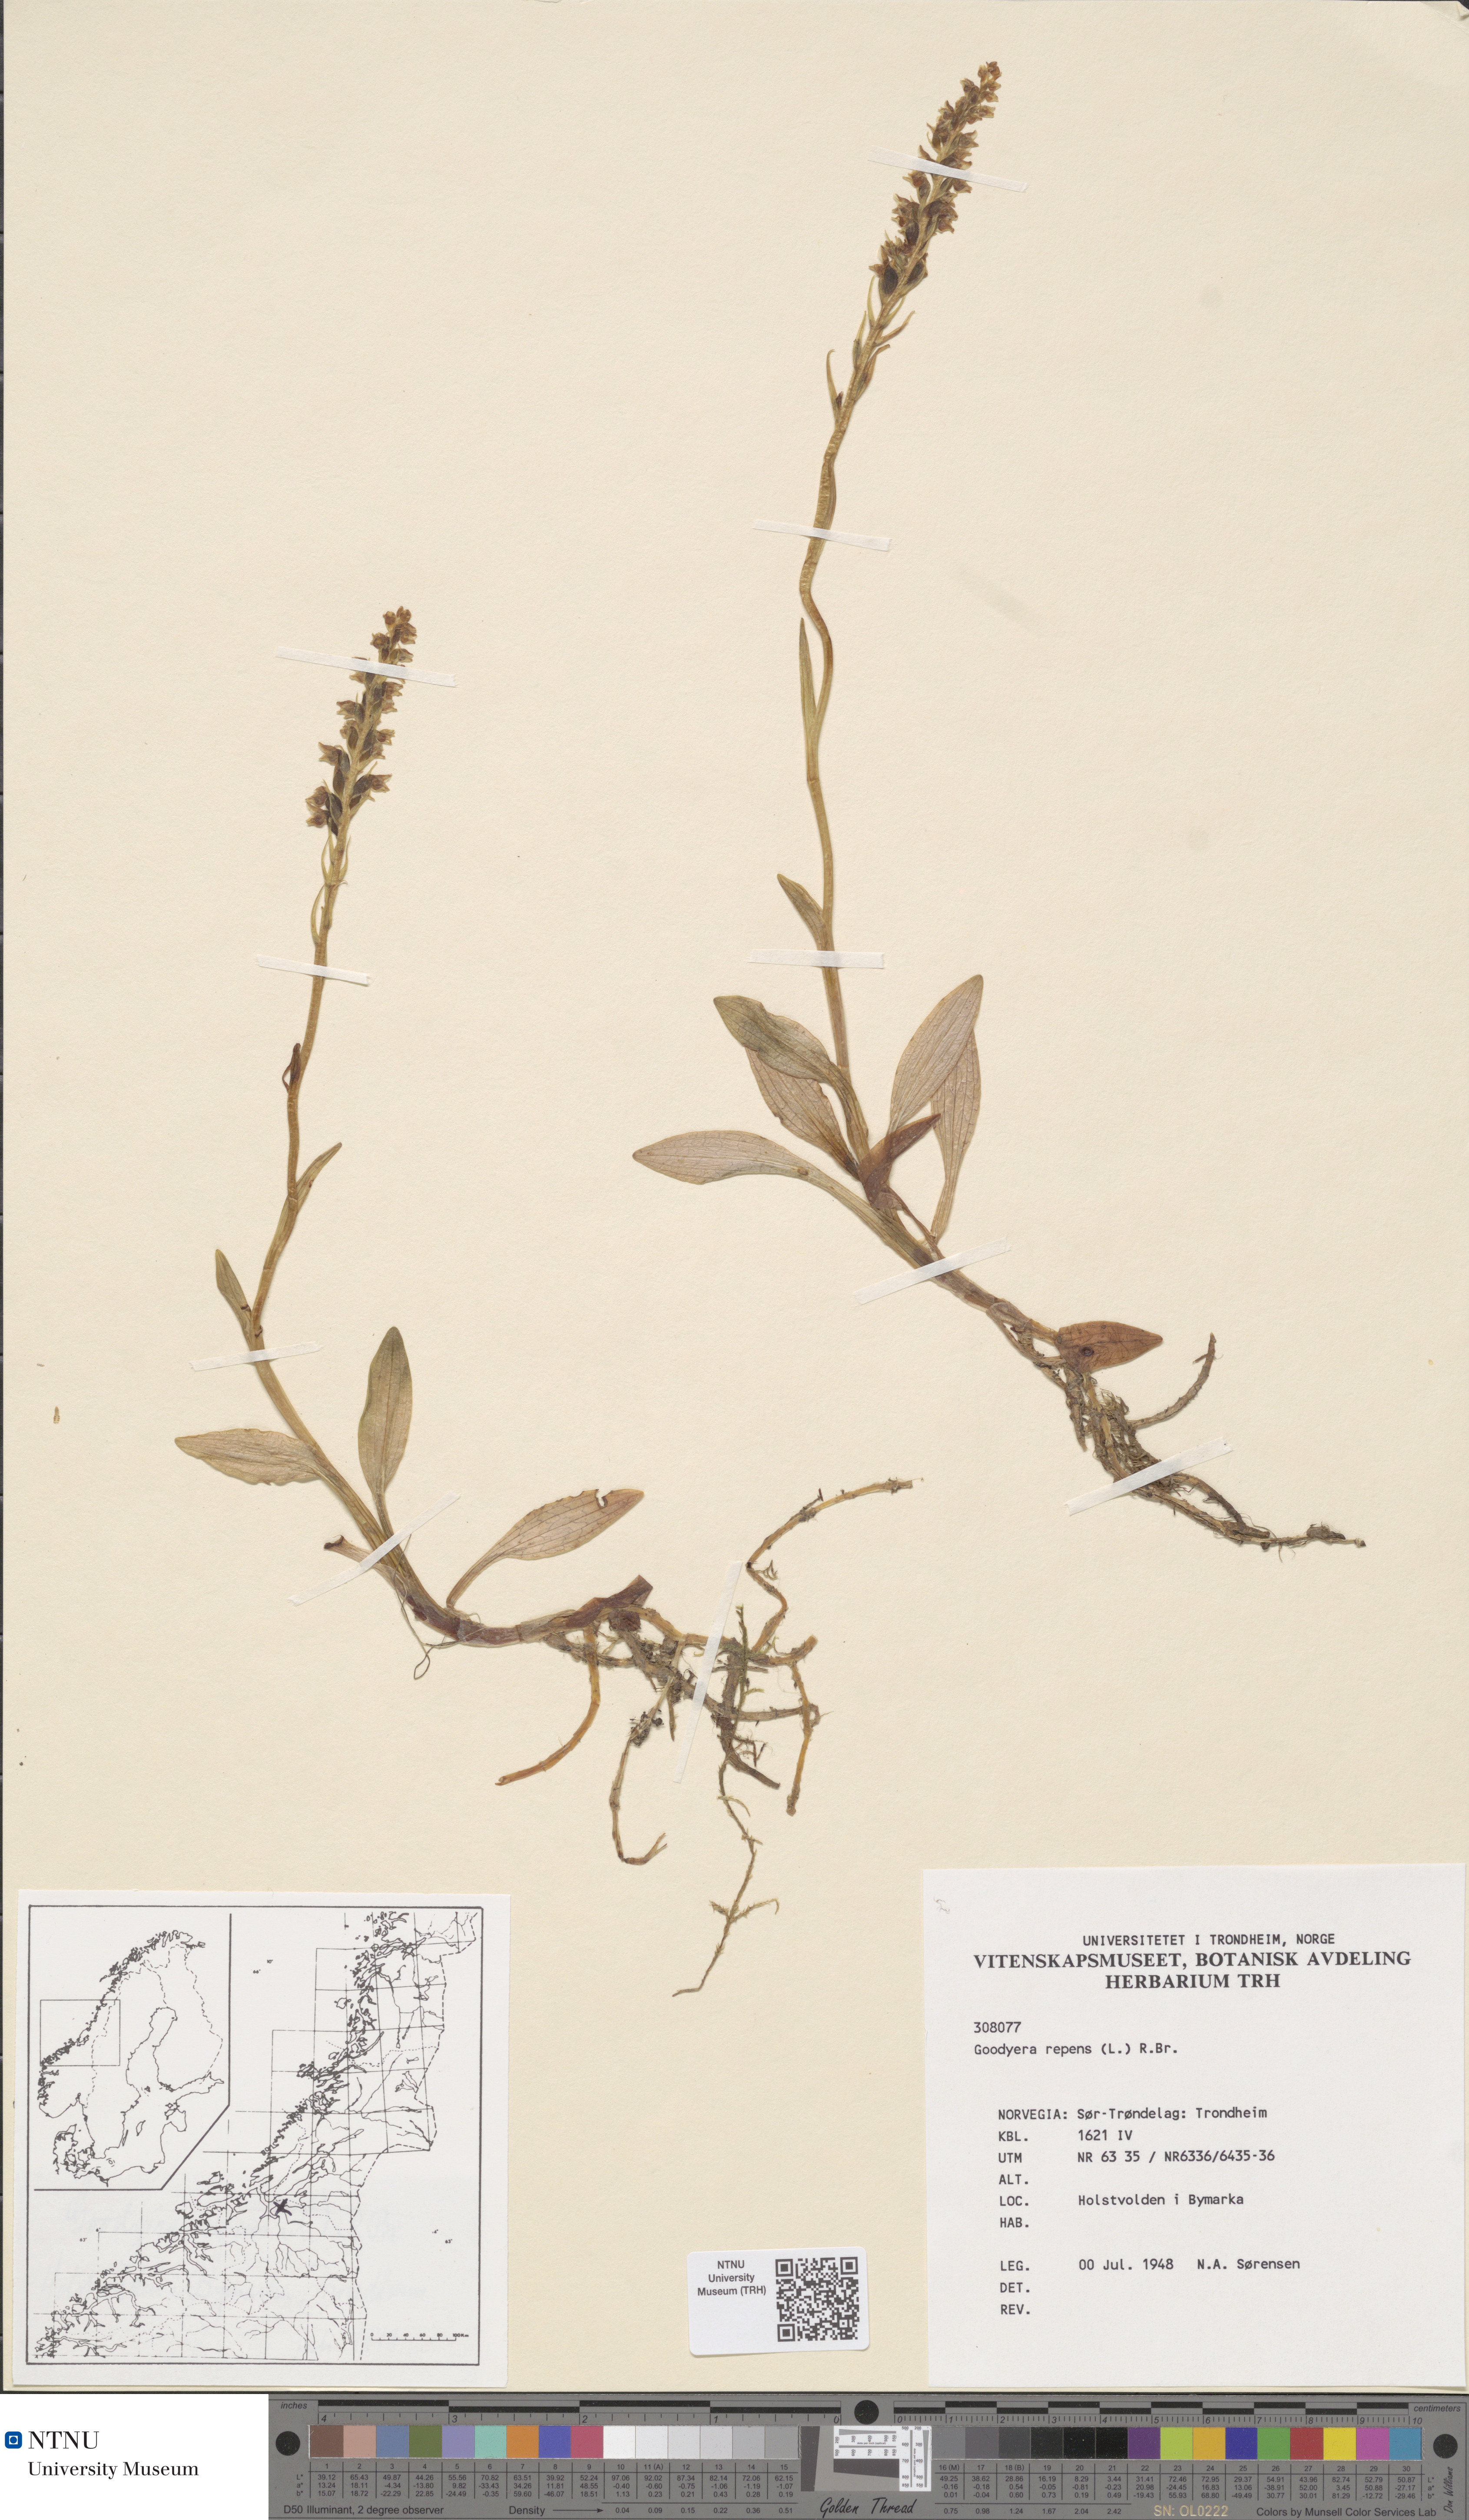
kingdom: Plantae
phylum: Tracheophyta
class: Liliopsida
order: Asparagales
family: Orchidaceae
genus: Goodyera
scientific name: Goodyera repens
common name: Creeping lady's-tresses
